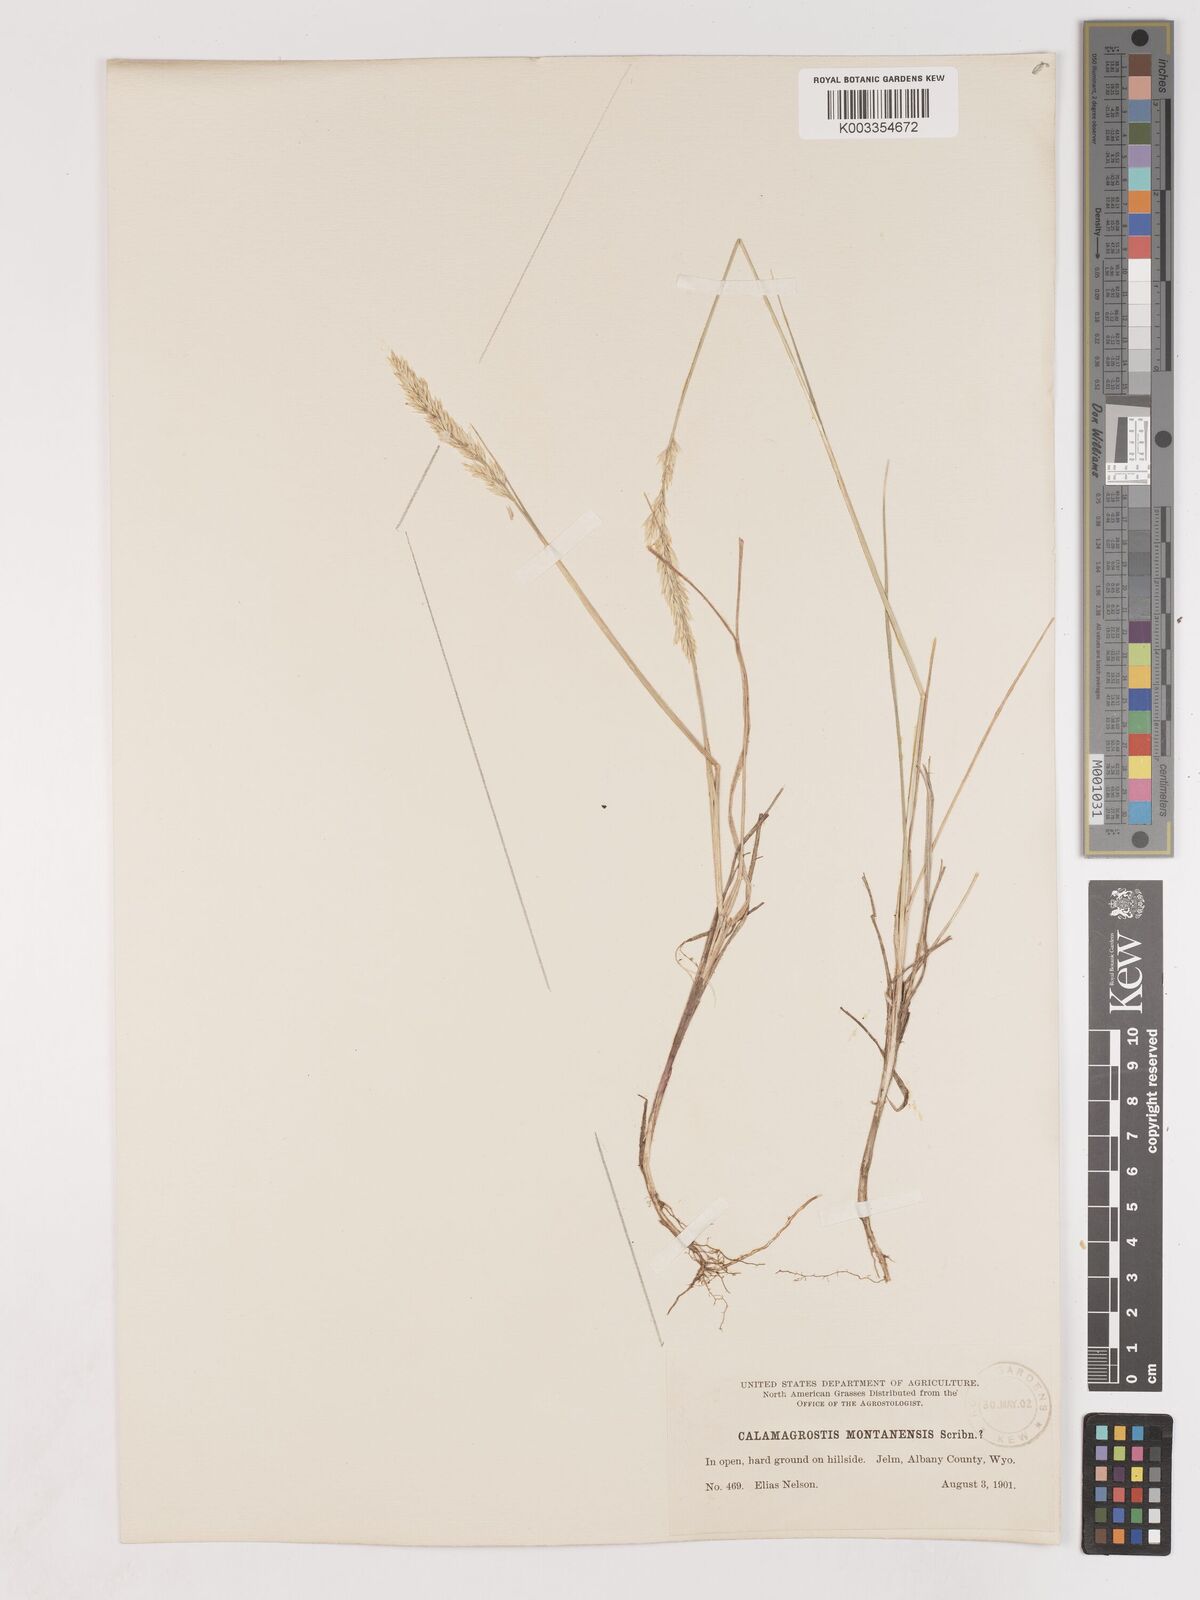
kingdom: Plantae
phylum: Tracheophyta
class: Liliopsida
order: Poales
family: Poaceae
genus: Calamagrostis
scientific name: Calamagrostis montanensis
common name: Plains reedgrass
